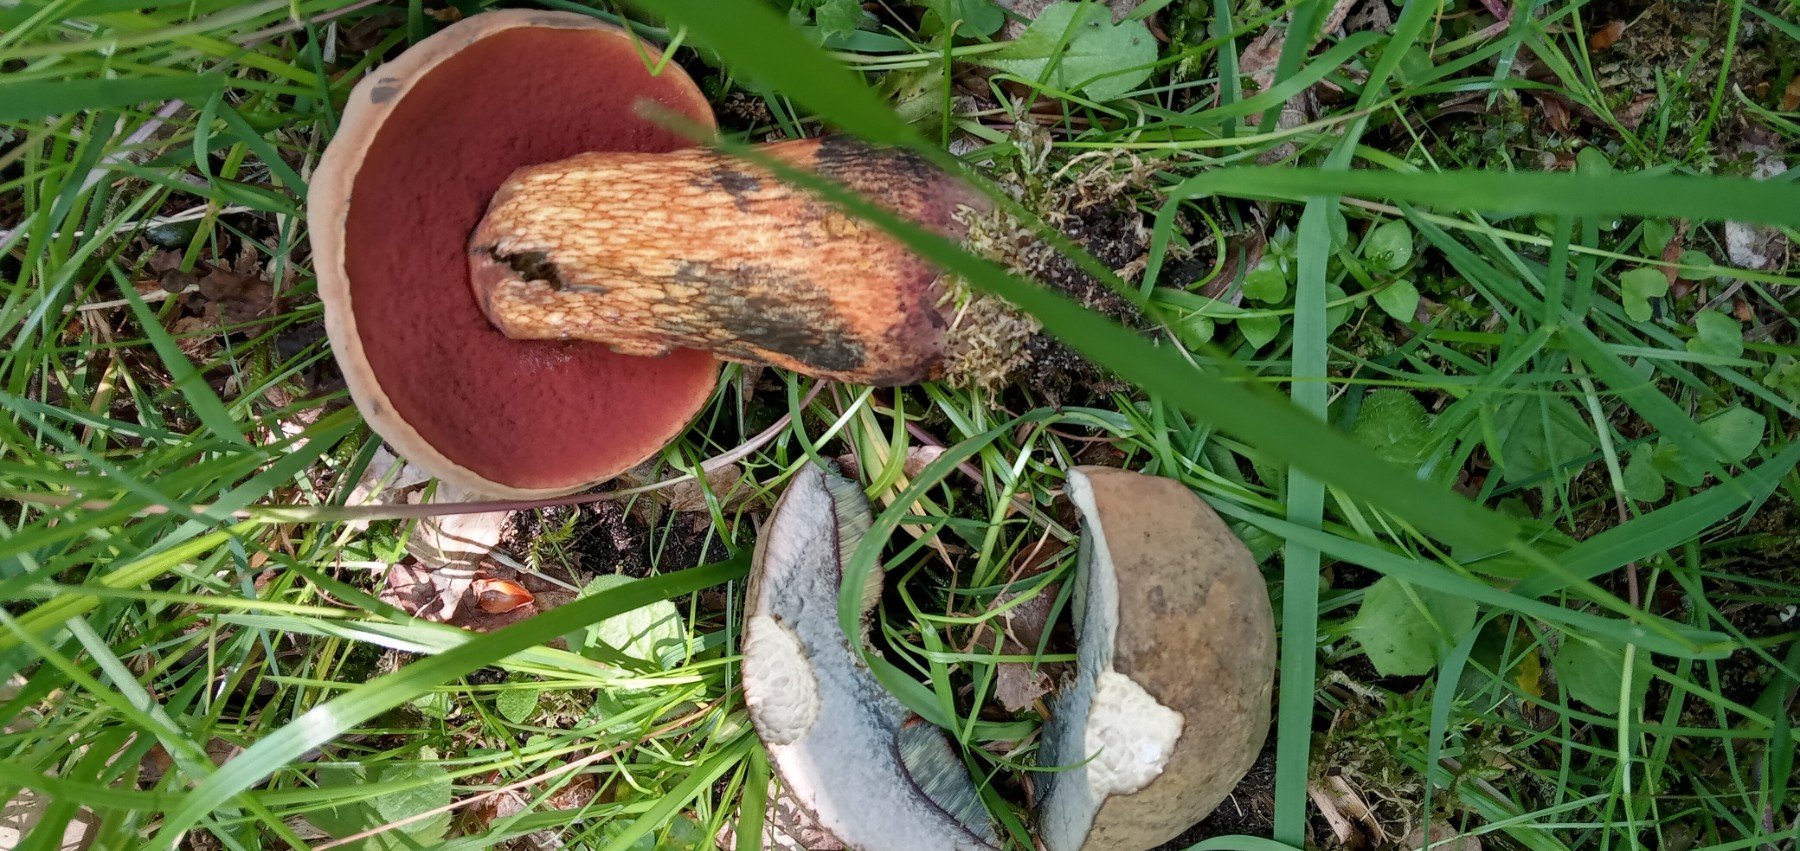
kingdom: Fungi
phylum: Basidiomycota
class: Agaricomycetes
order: Boletales
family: Boletaceae
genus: Suillellus
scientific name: Suillellus luridus
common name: netstokket indigorørhat
